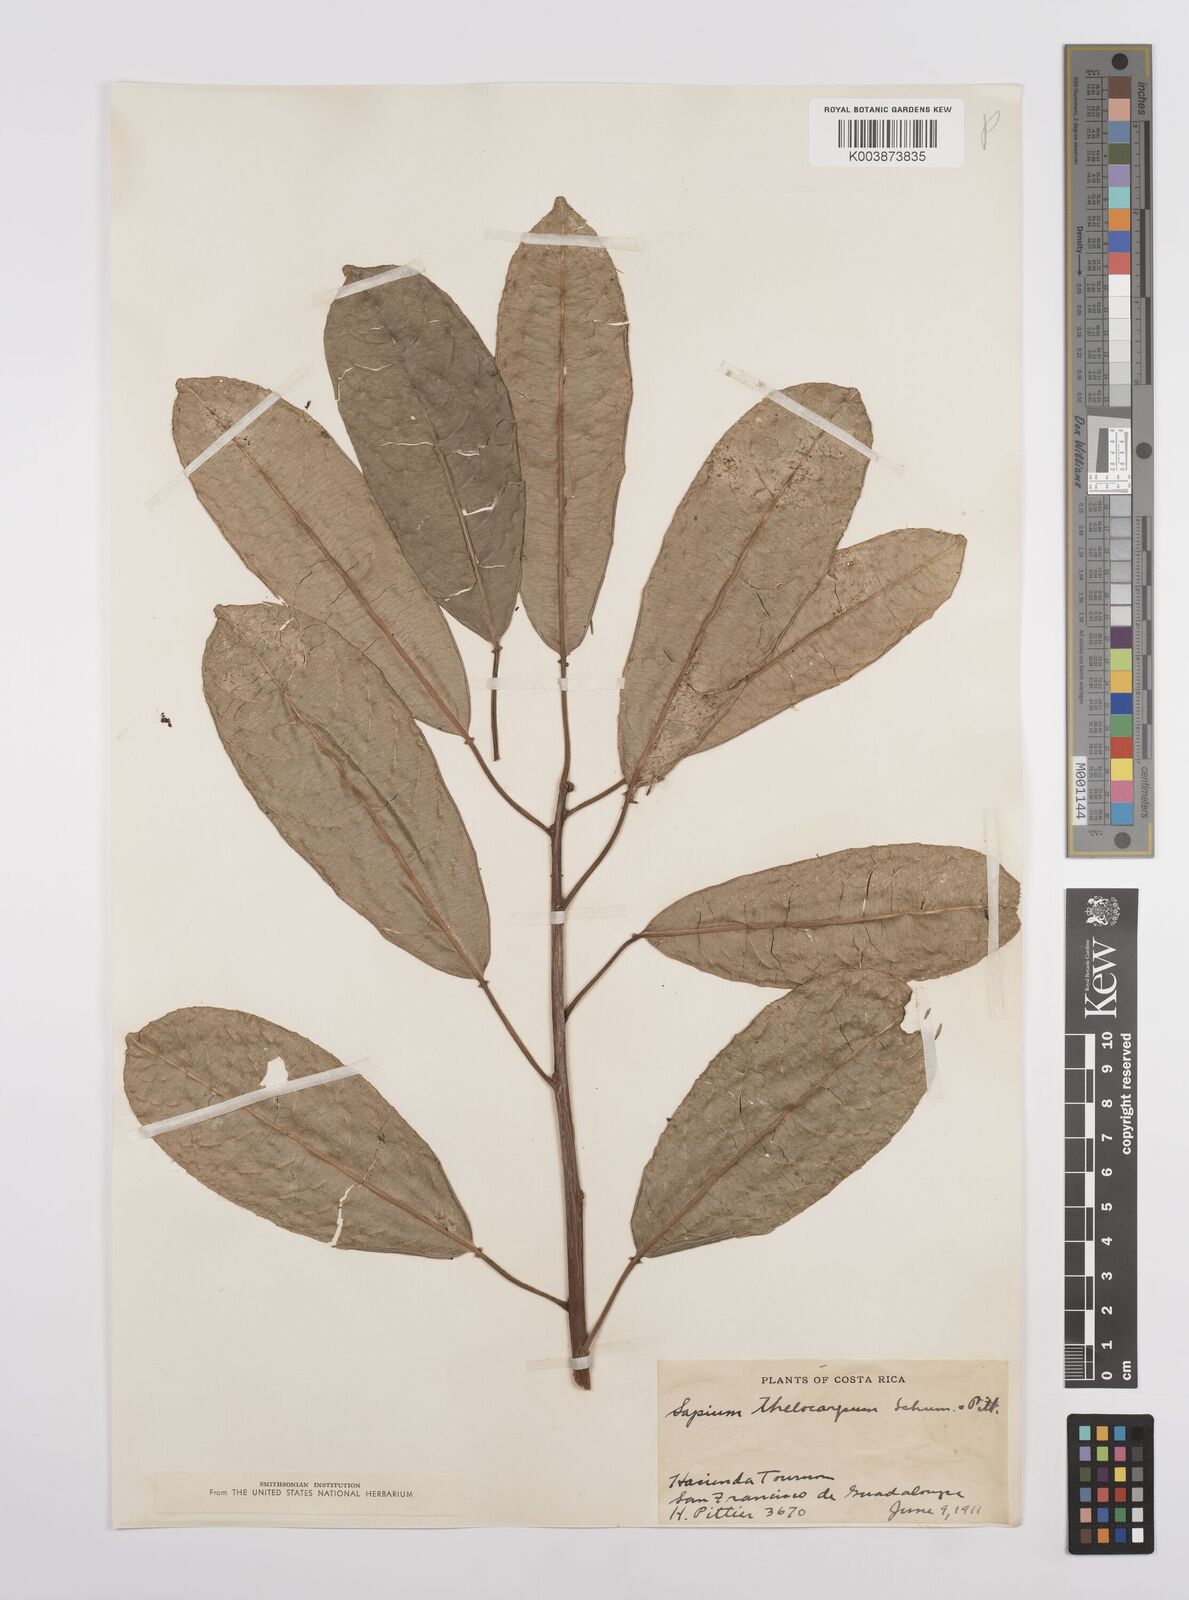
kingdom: Plantae
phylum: Tracheophyta
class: Magnoliopsida
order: Malpighiales
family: Euphorbiaceae
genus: Sapium
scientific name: Sapium macrocarpum
